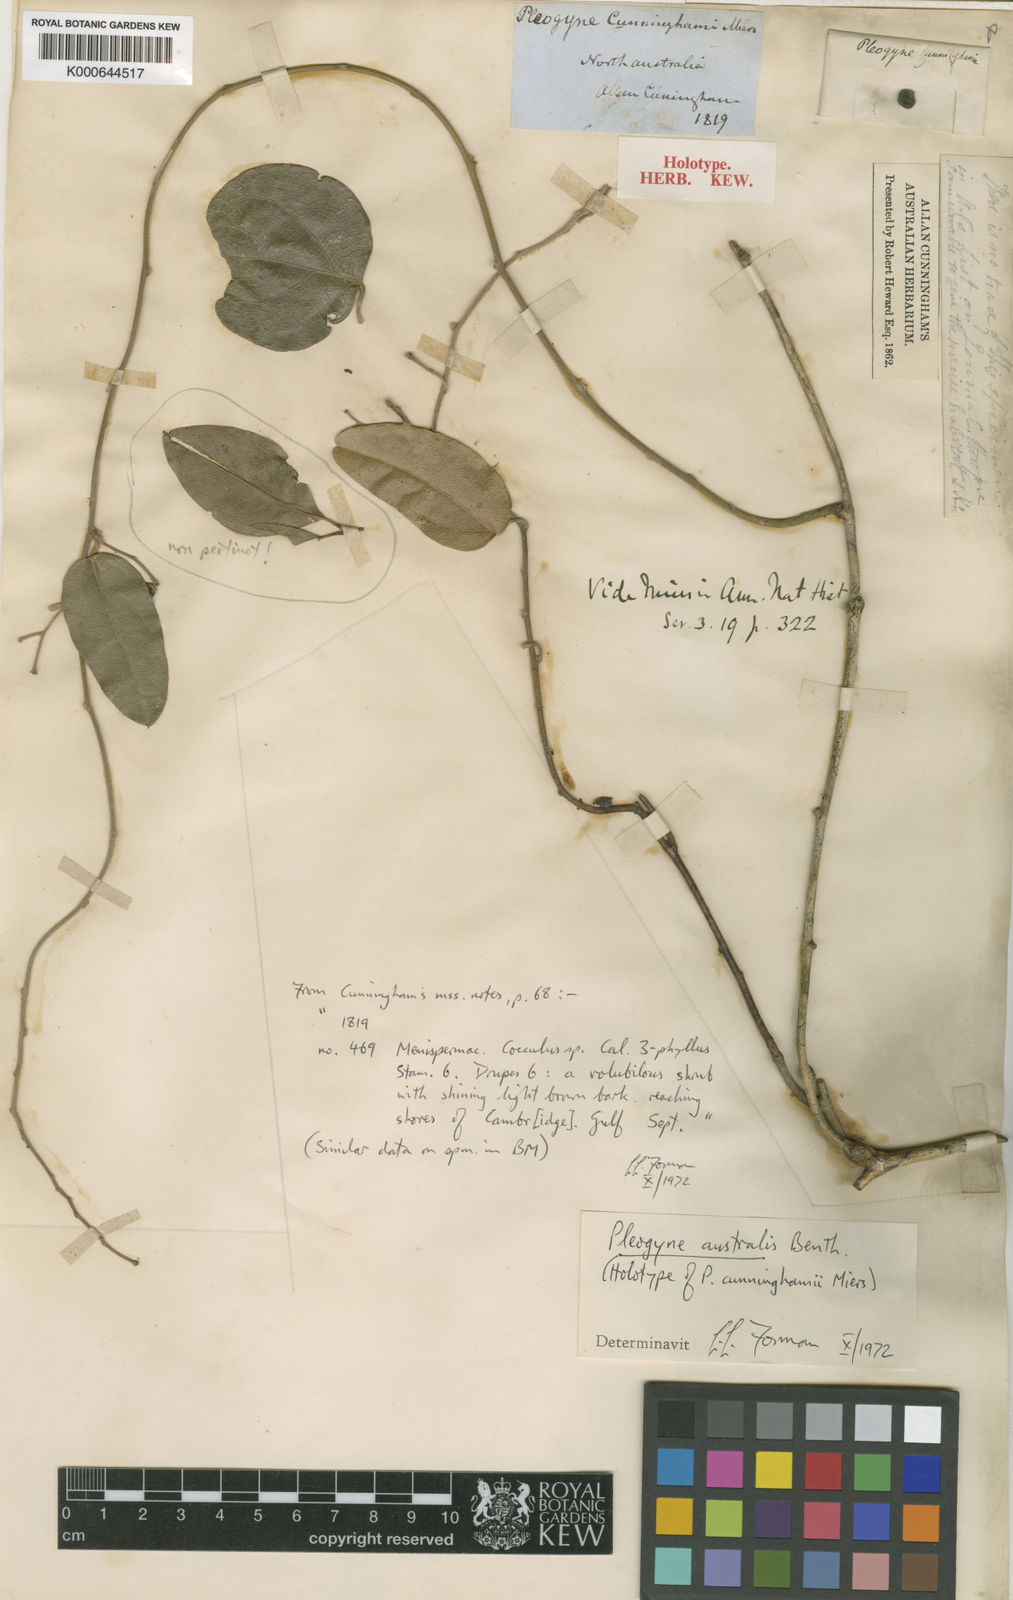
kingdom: Plantae
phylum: Tracheophyta
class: Magnoliopsida
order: Ranunculales
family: Menispermaceae
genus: Pleogyne
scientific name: Pleogyne australis
